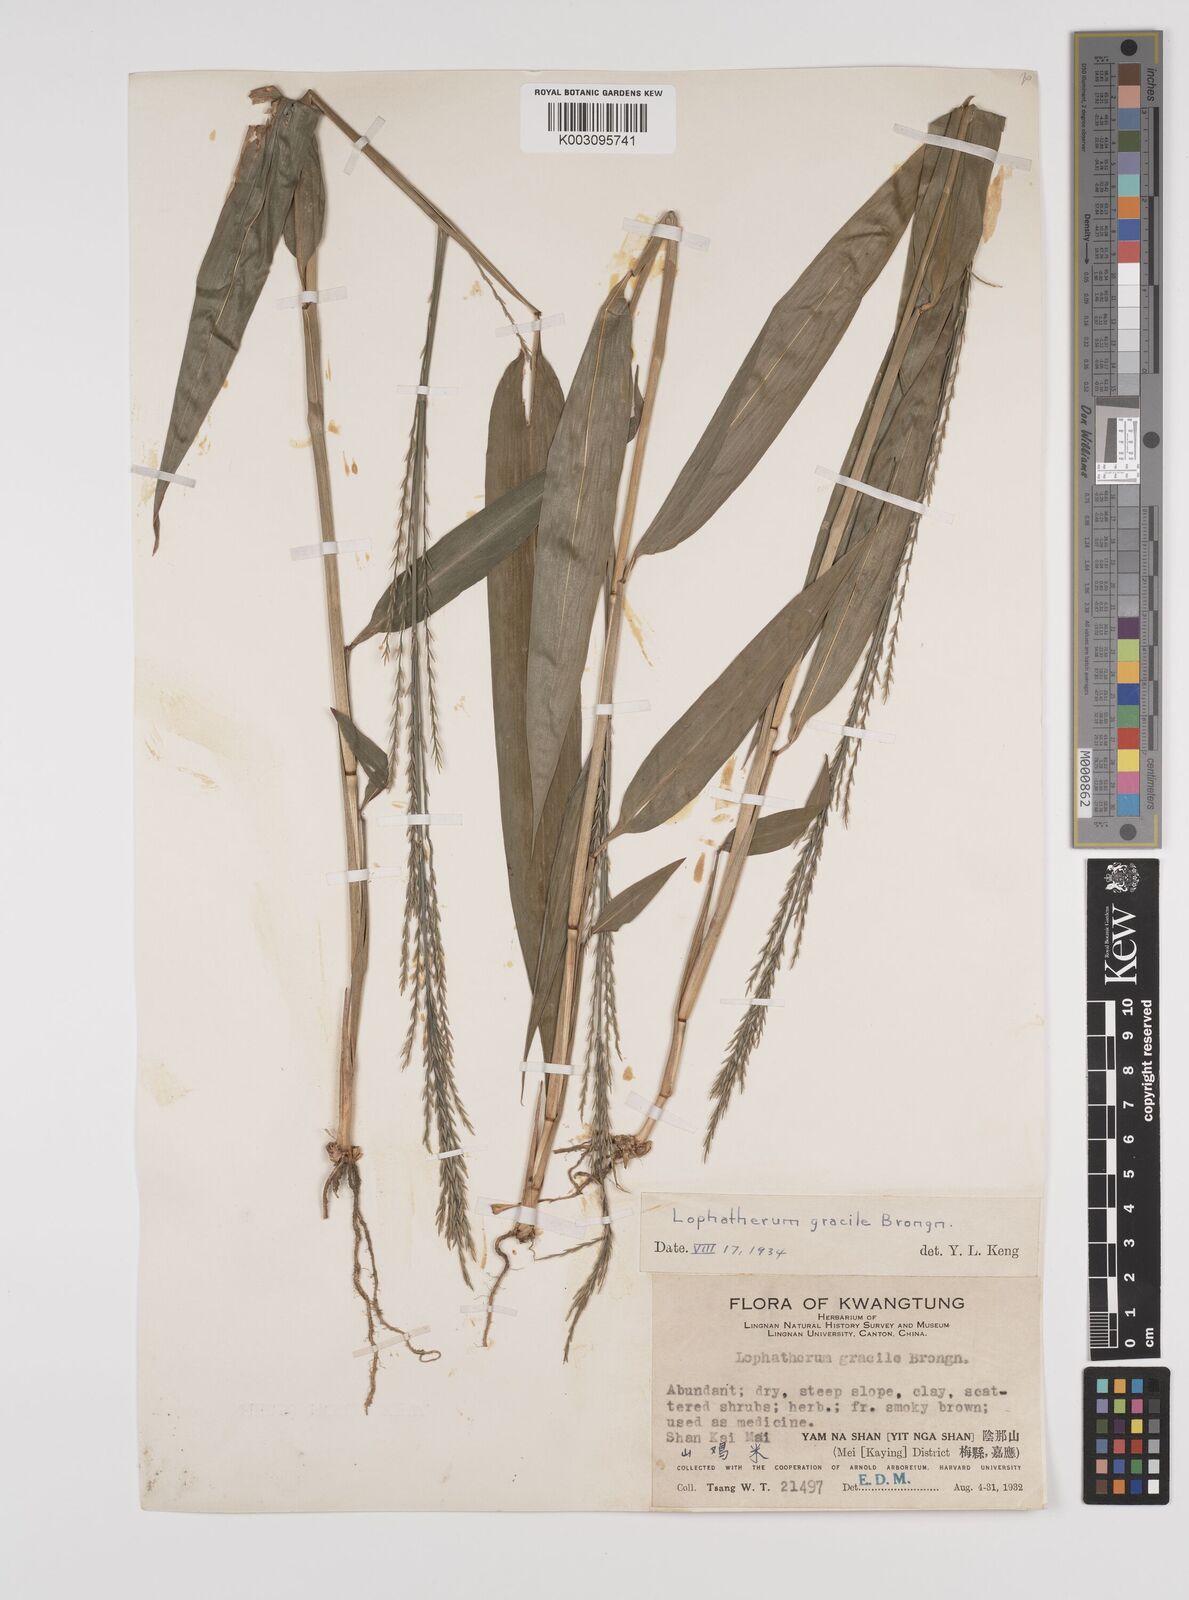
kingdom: Plantae
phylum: Tracheophyta
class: Liliopsida
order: Poales
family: Poaceae
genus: Lophatherum
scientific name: Lophatherum gracile
